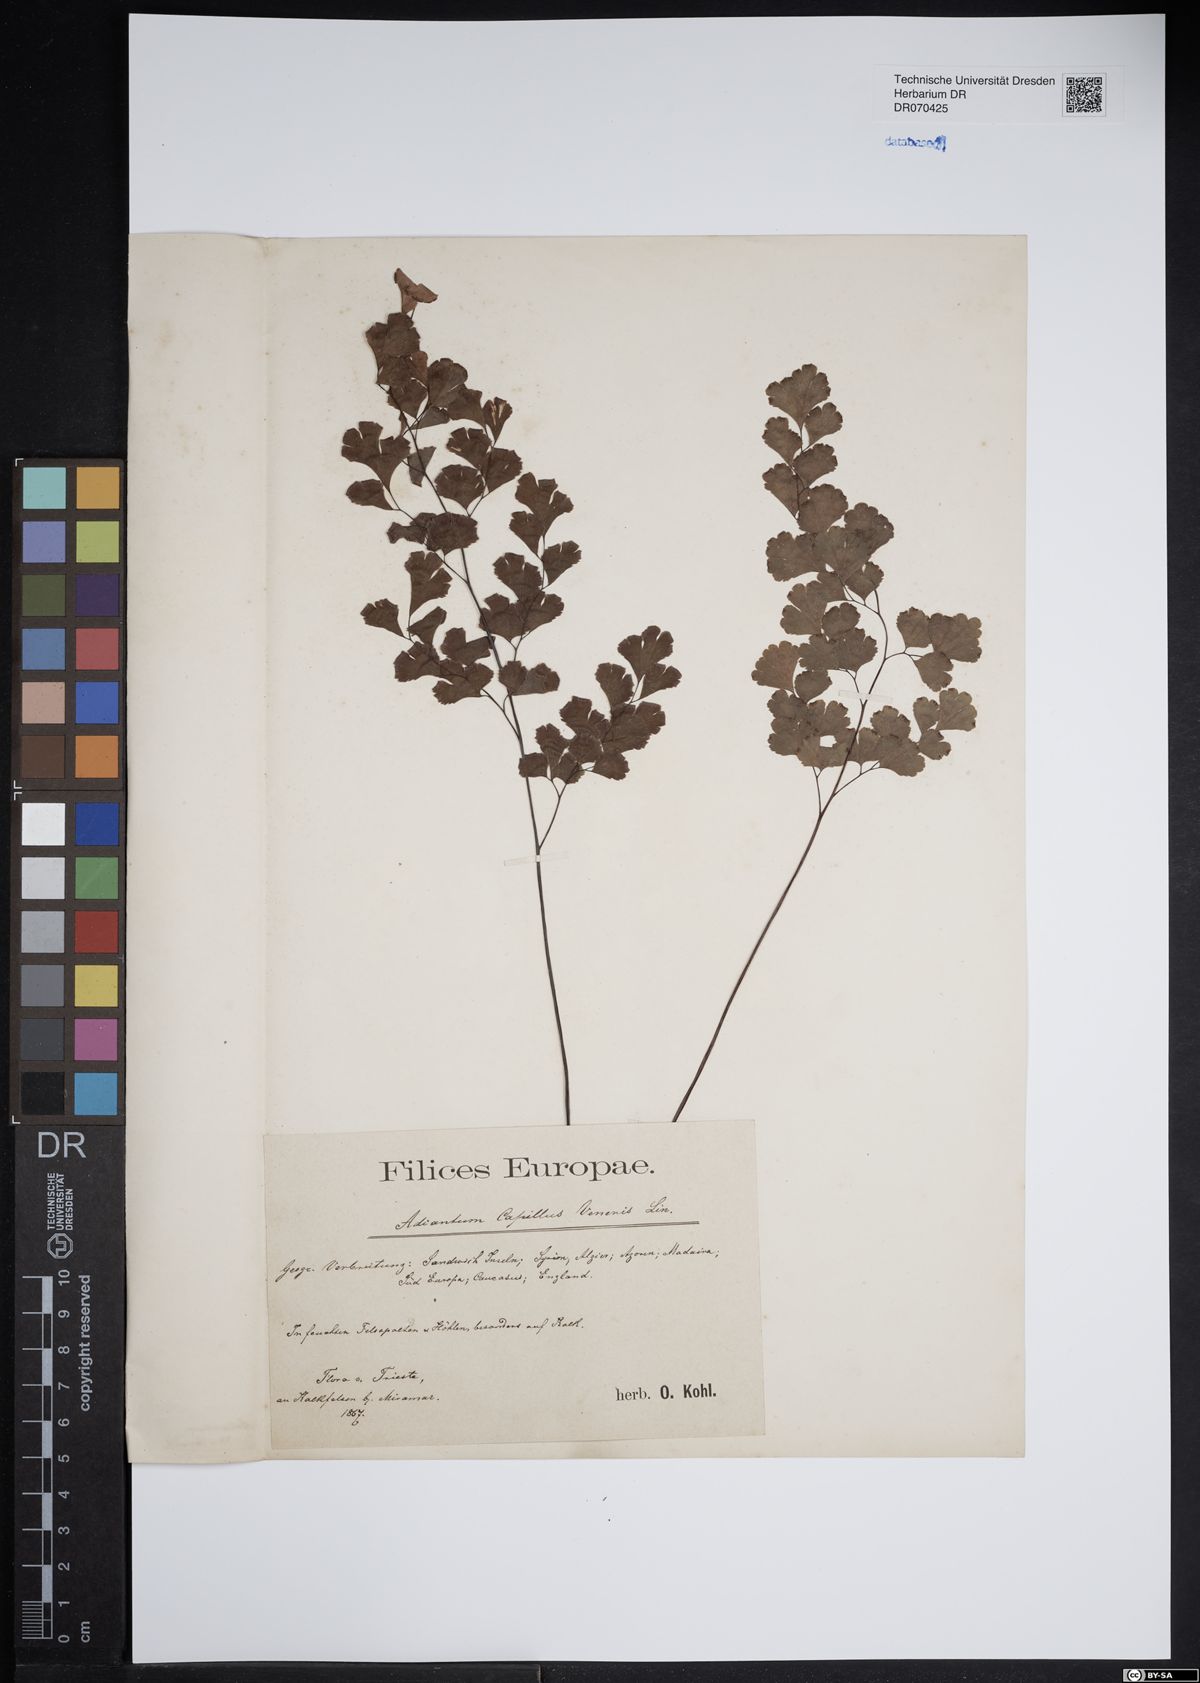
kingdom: Plantae
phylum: Tracheophyta
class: Polypodiopsida
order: Polypodiales
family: Pteridaceae
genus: Adiantum
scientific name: Adiantum capillus-veneris
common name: Maidenhair fern
